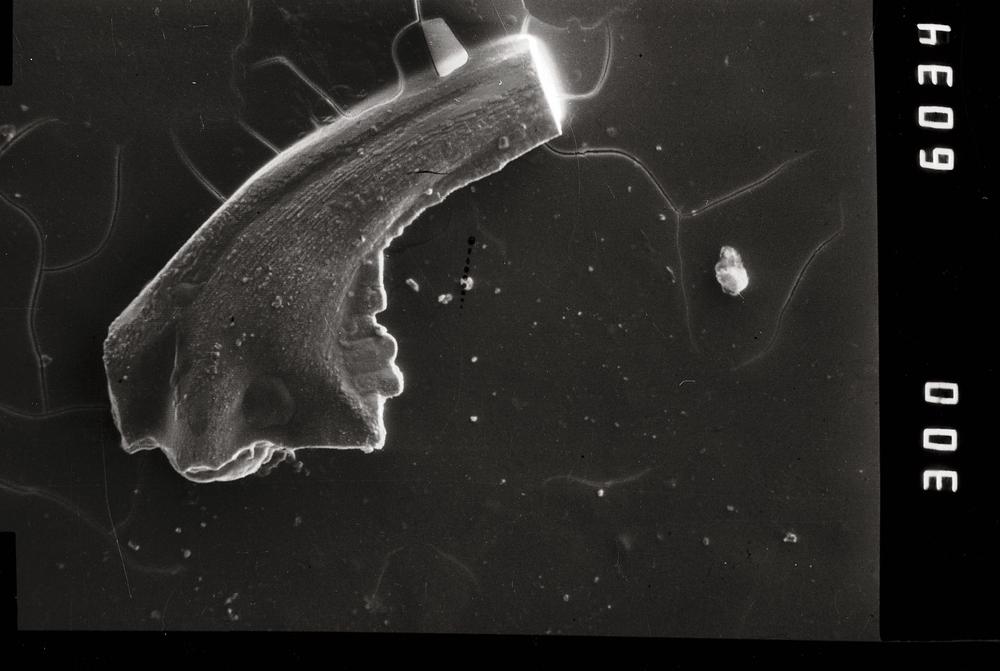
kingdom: Animalia
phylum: Chordata
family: Balognathidae
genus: Prioniodus
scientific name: Prioniodus
